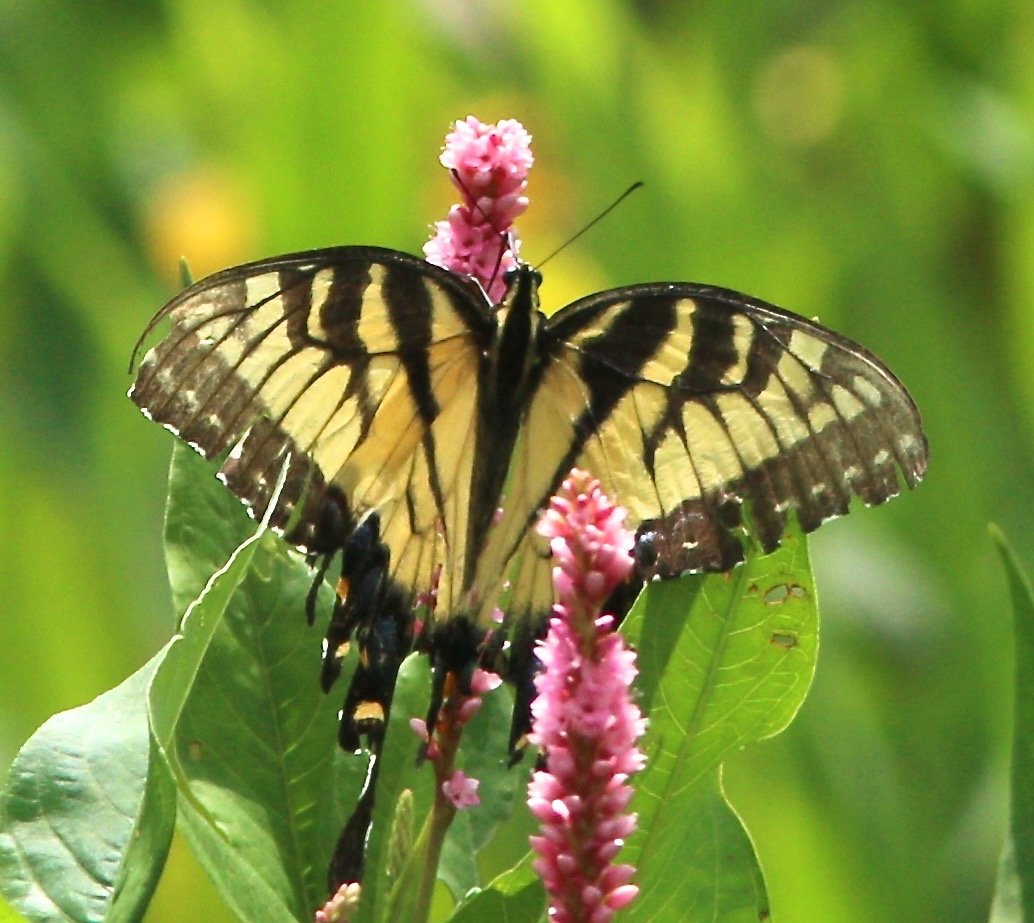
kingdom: Animalia
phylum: Arthropoda
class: Insecta
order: Lepidoptera
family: Papilionidae
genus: Pterourus
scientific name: Pterourus glaucus
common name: Eastern Tiger Swallowtail
